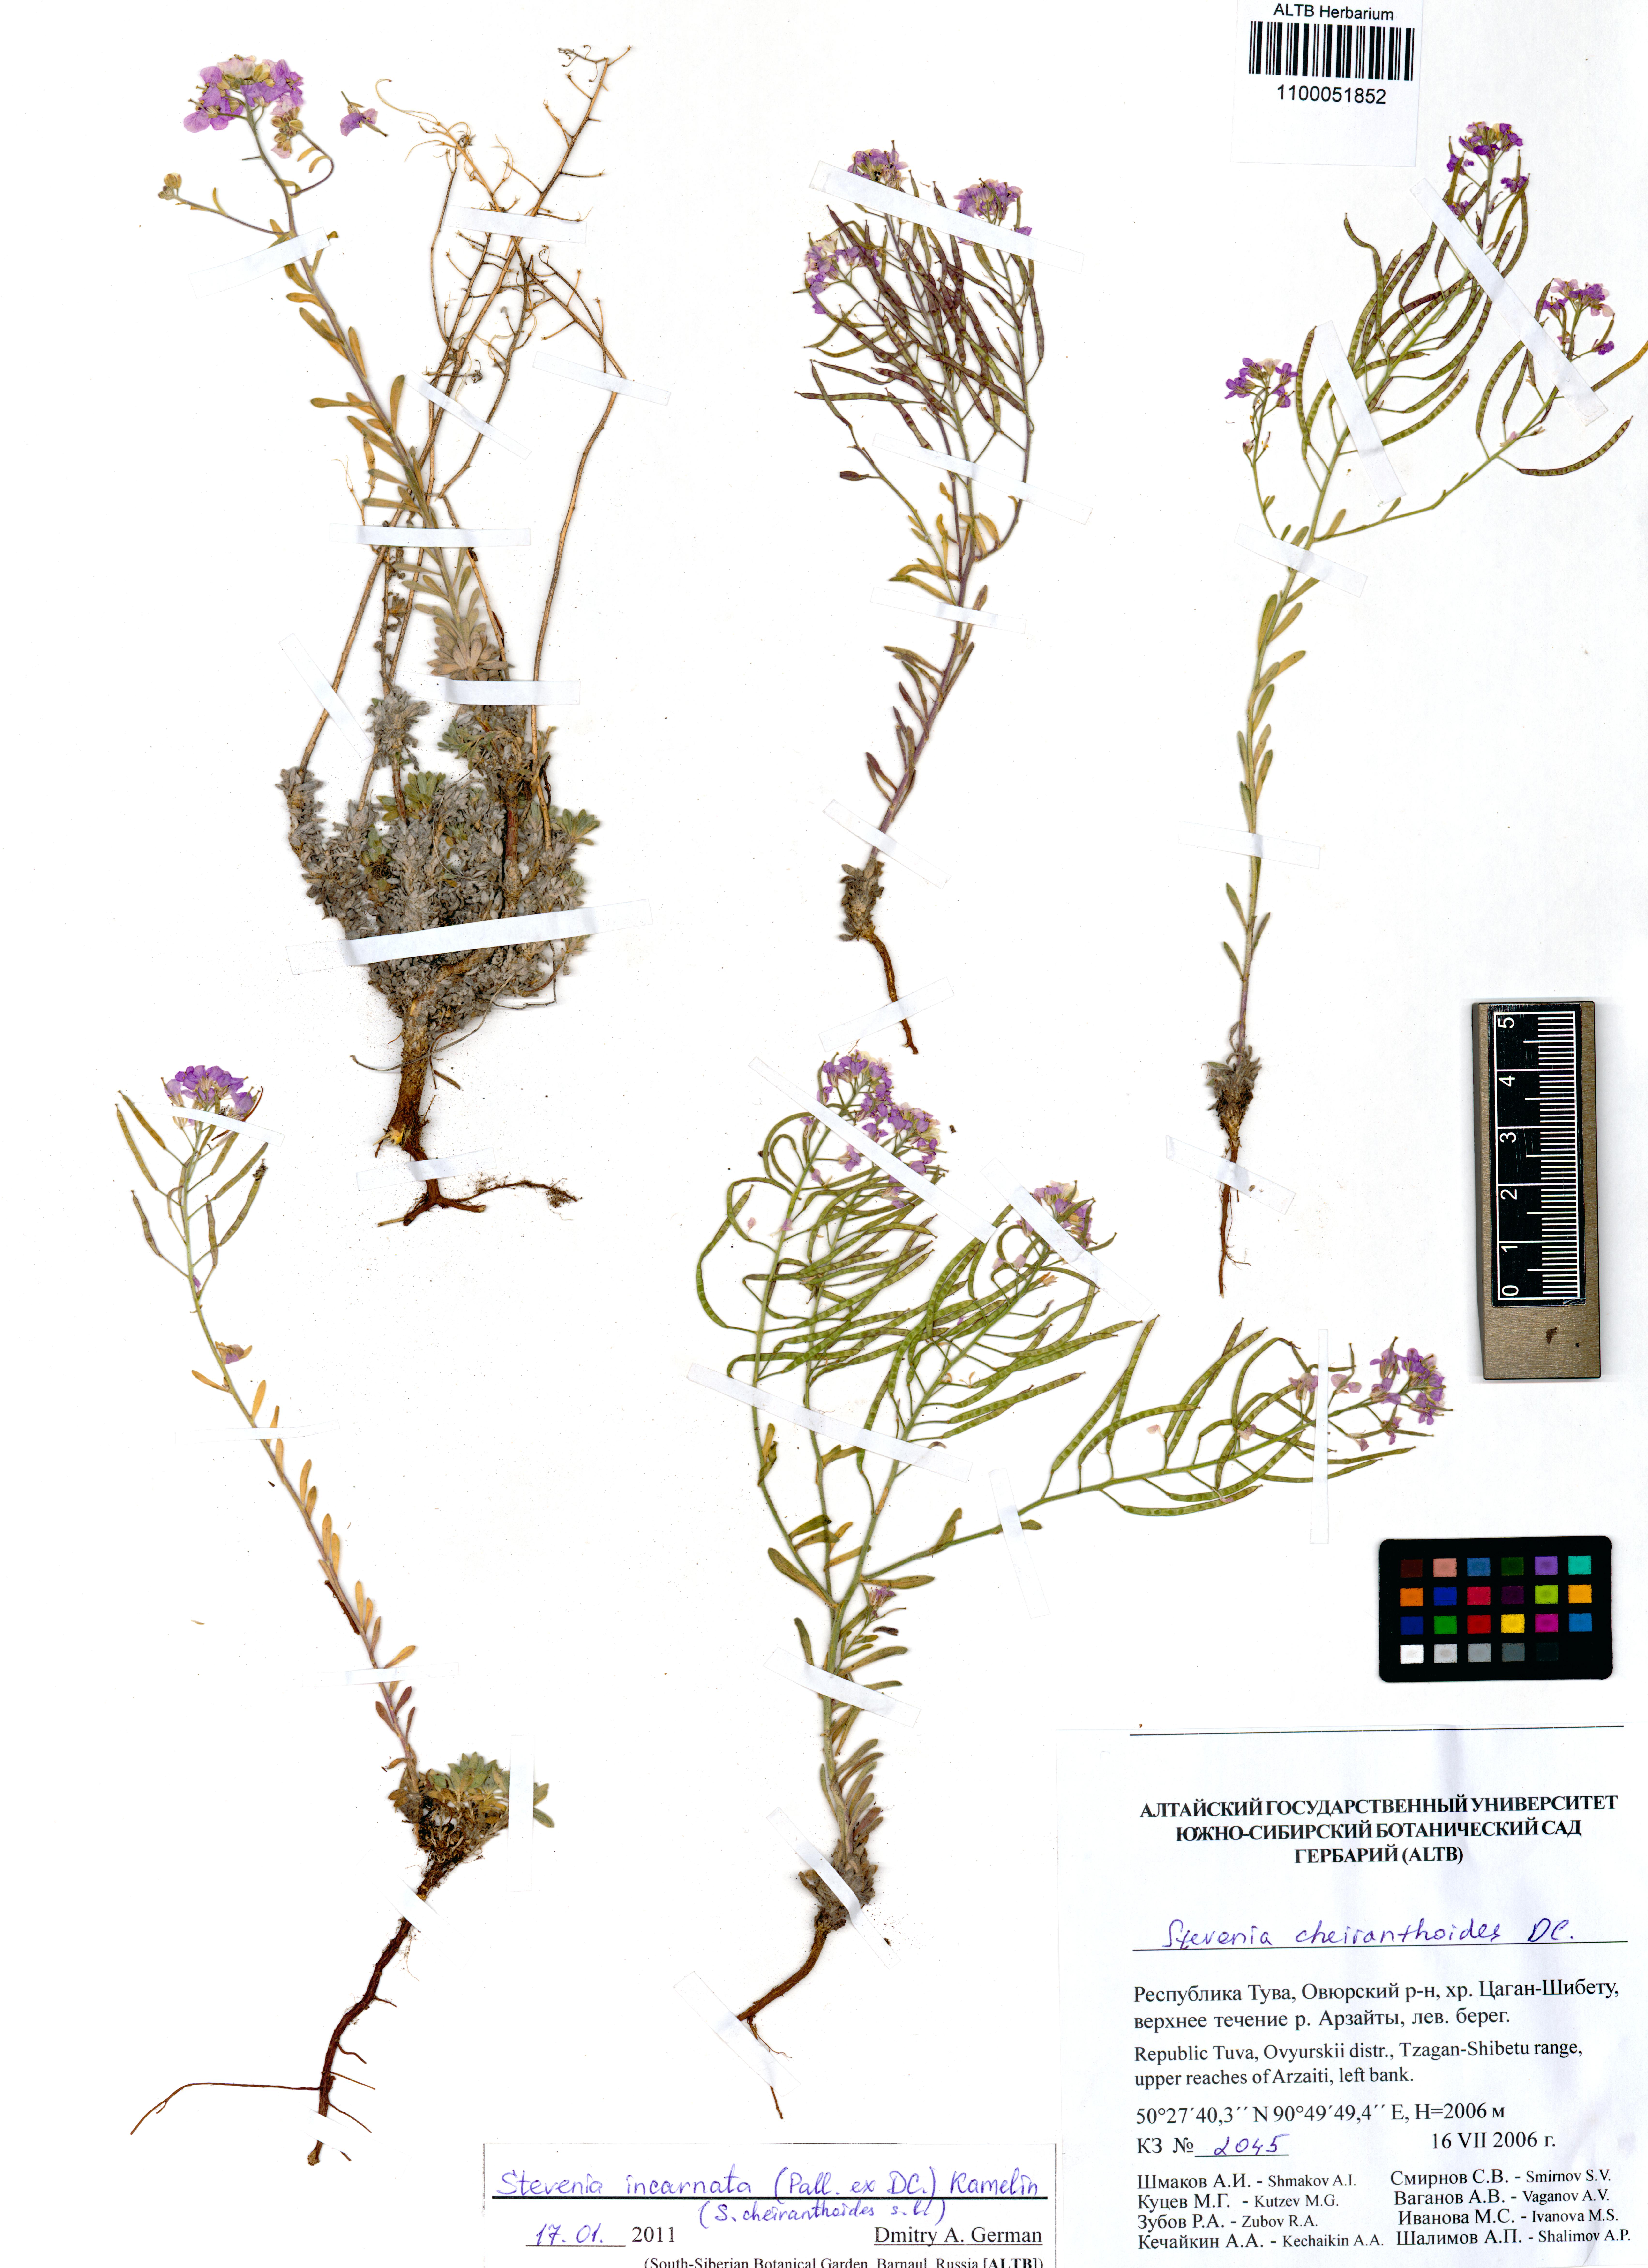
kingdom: Plantae
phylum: Tracheophyta
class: Magnoliopsida
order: Brassicales
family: Brassicaceae
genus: Stevenia
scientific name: Stevenia incarnata
